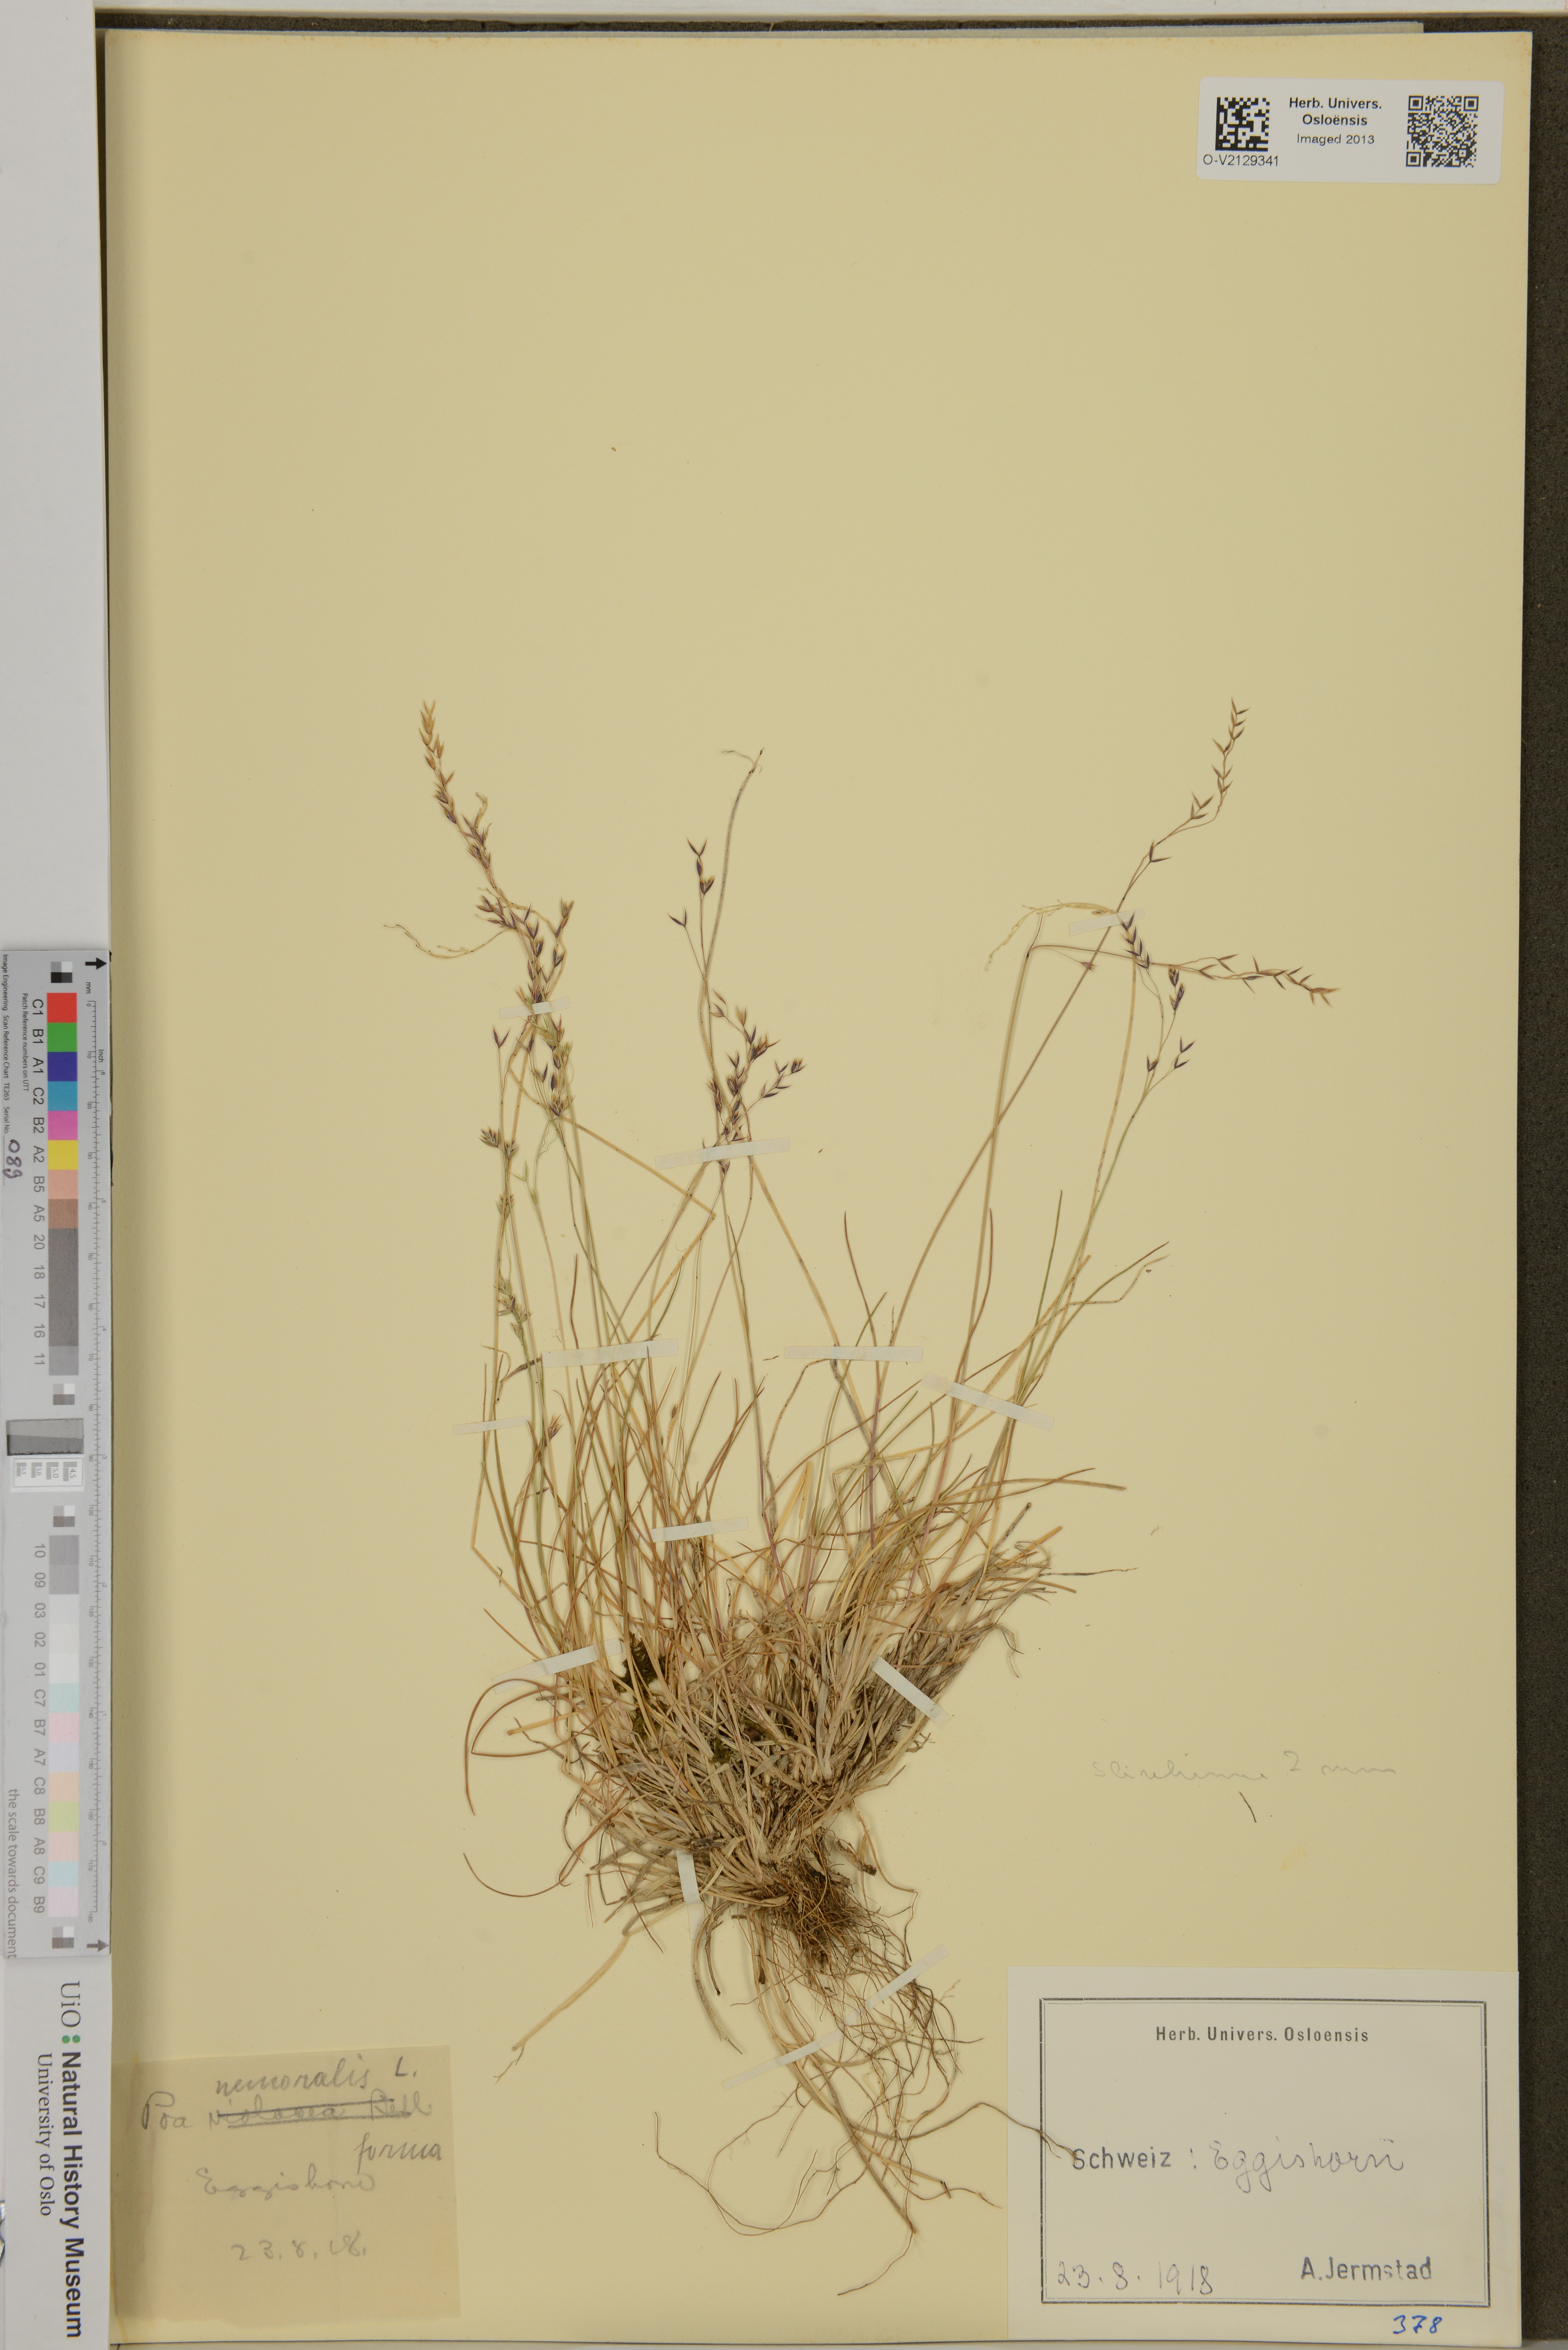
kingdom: Plantae
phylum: Tracheophyta
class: Liliopsida
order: Poales
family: Poaceae
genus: Poa
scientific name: Poa nemoralis
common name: Wood bluegrass
